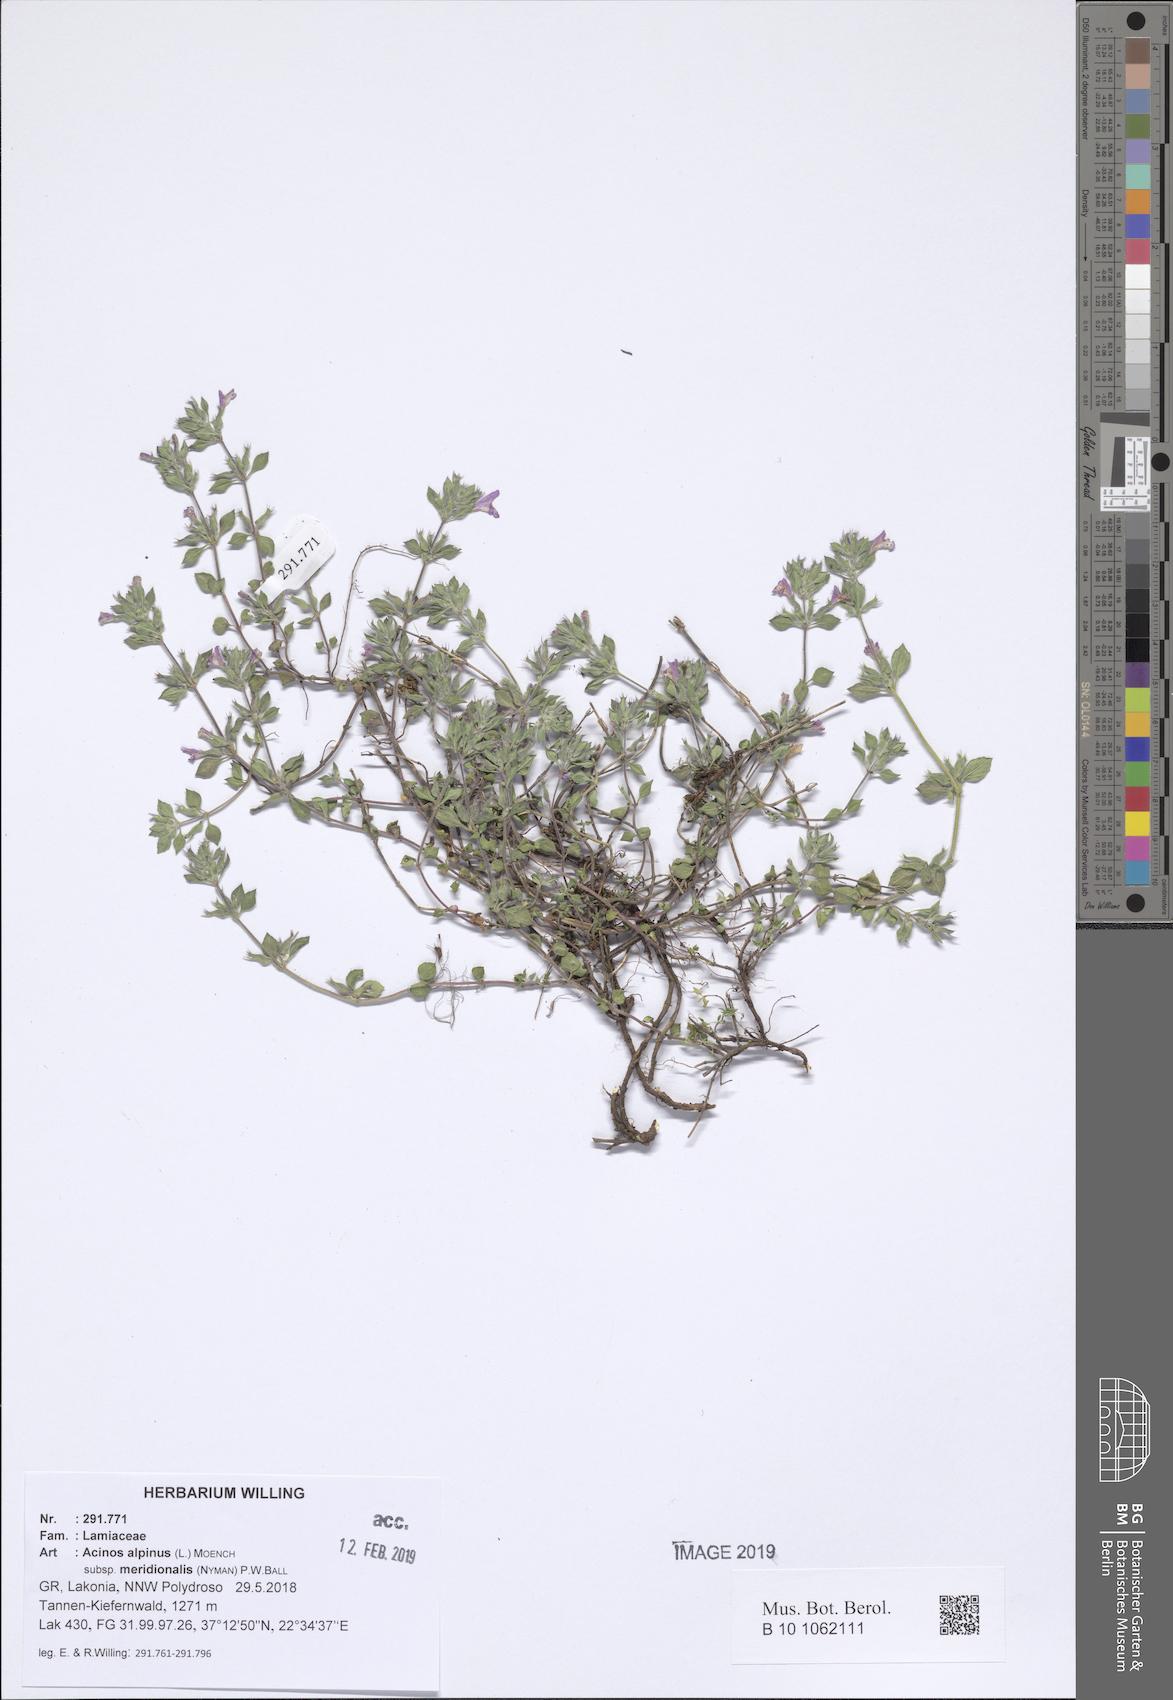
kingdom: Plantae
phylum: Tracheophyta
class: Magnoliopsida
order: Lamiales
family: Lamiaceae
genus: Clinopodium
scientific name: Clinopodium alpinum
